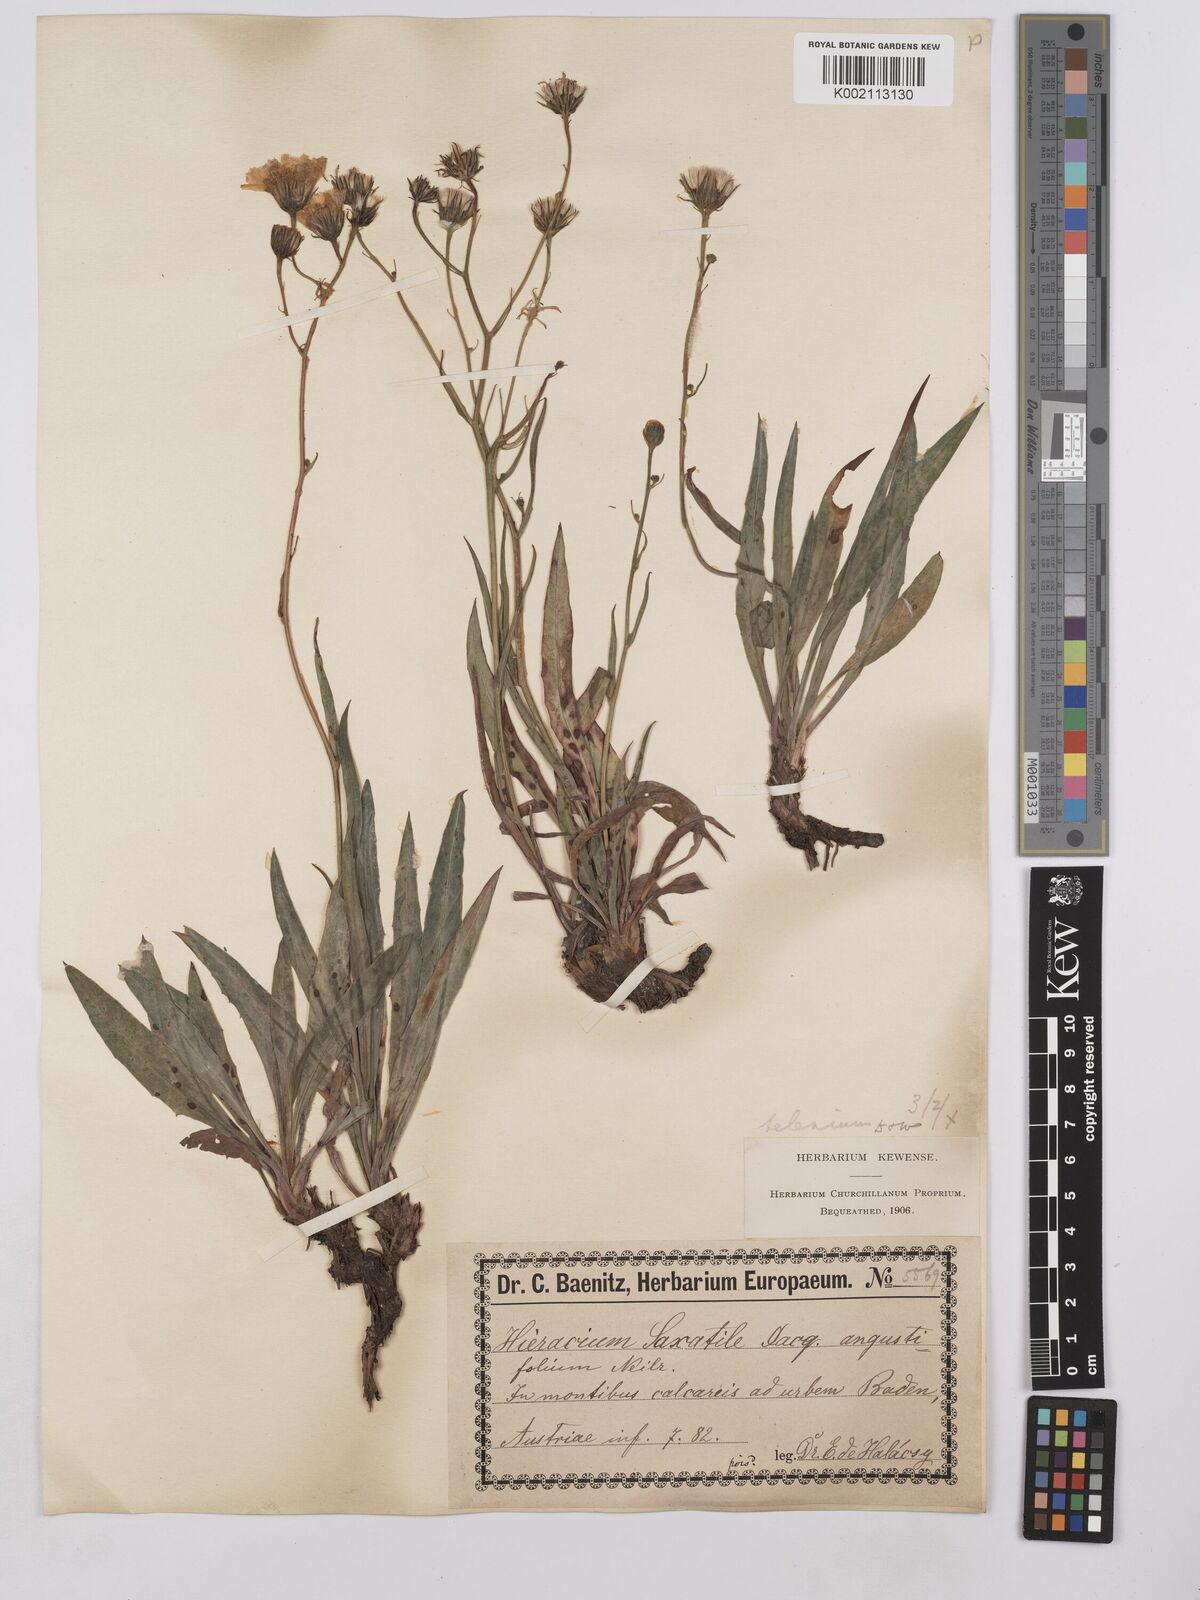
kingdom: Plantae
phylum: Tracheophyta
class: Magnoliopsida
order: Asterales
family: Asteraceae
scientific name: Asteraceae
